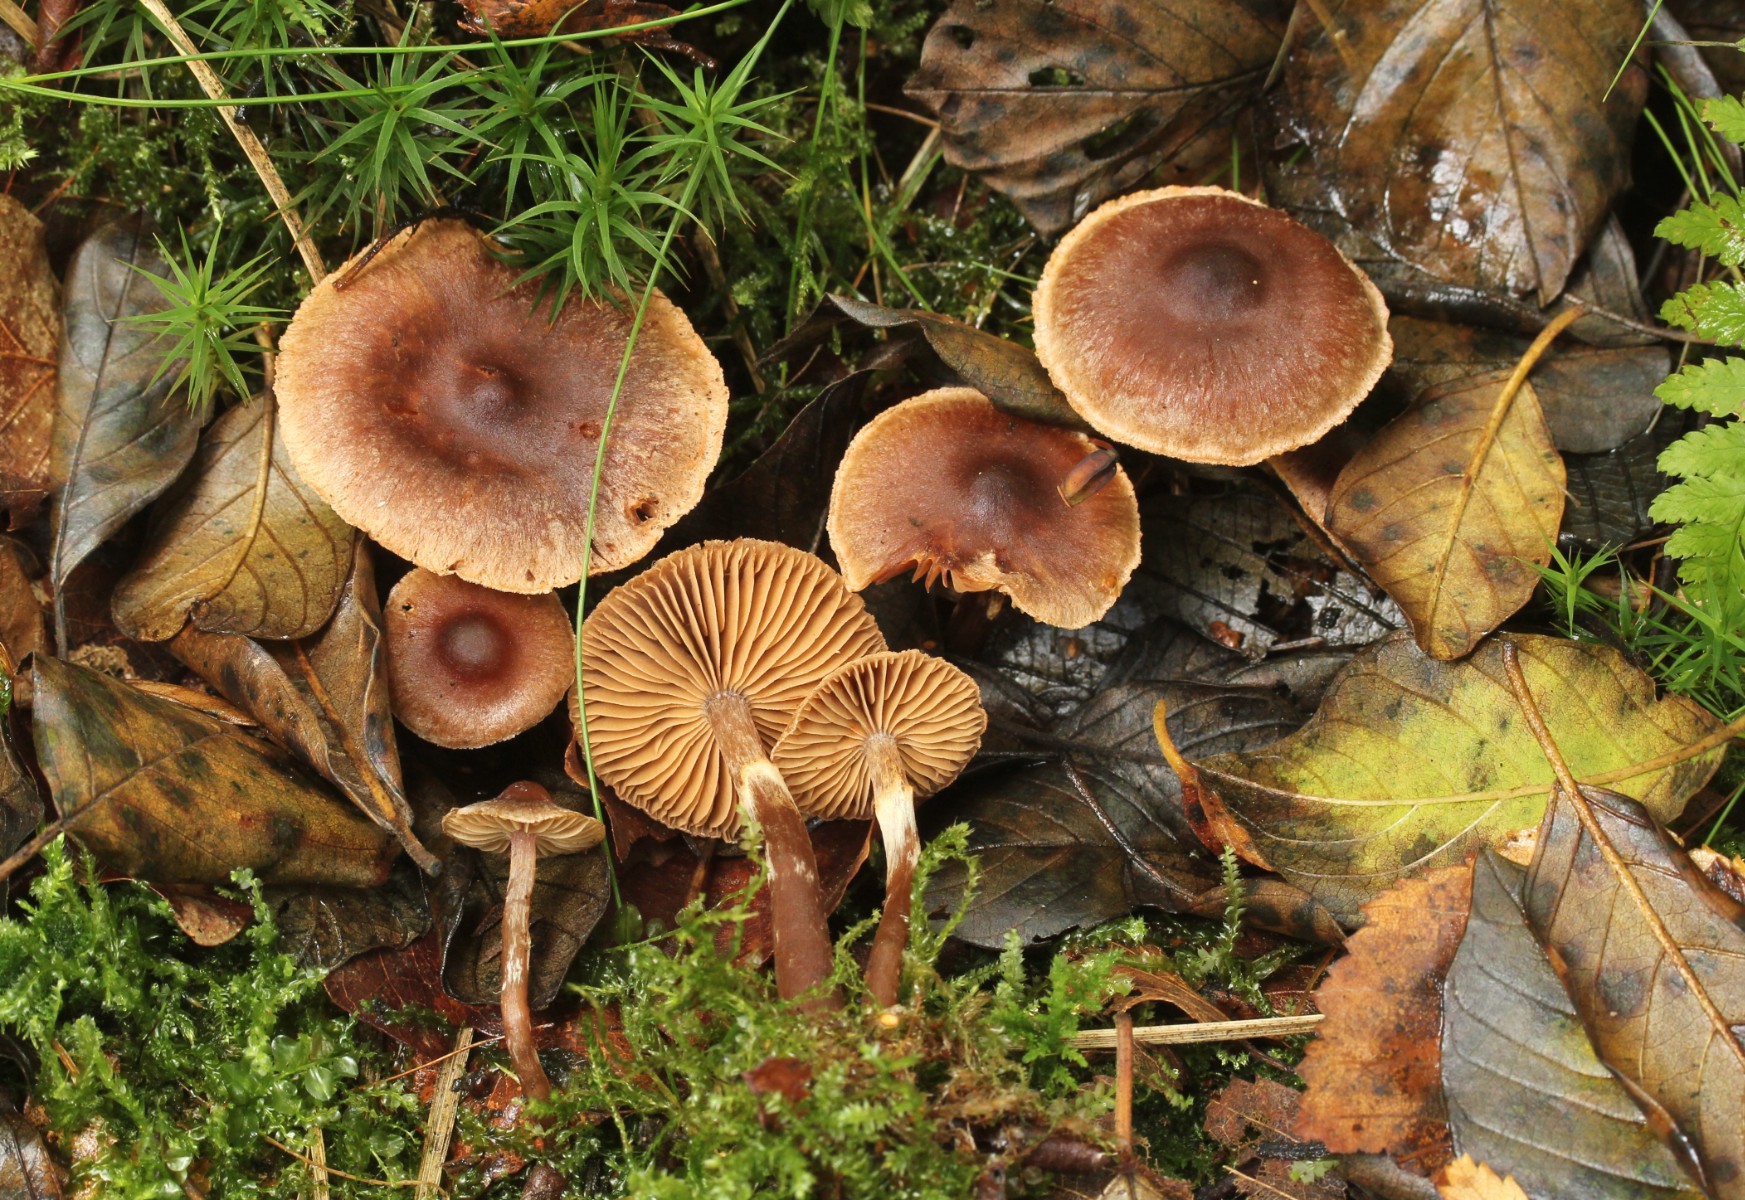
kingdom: Fungi
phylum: Basidiomycota
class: Agaricomycetes
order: Agaricales
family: Cortinariaceae
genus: Cortinarius
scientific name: Cortinarius umbrinolens
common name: mørk slørhat
